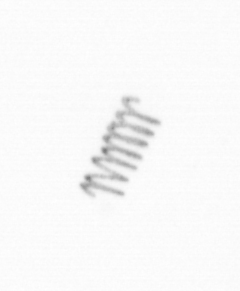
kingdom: Chromista
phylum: Ochrophyta
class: Bacillariophyceae
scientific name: Bacillariophyceae
